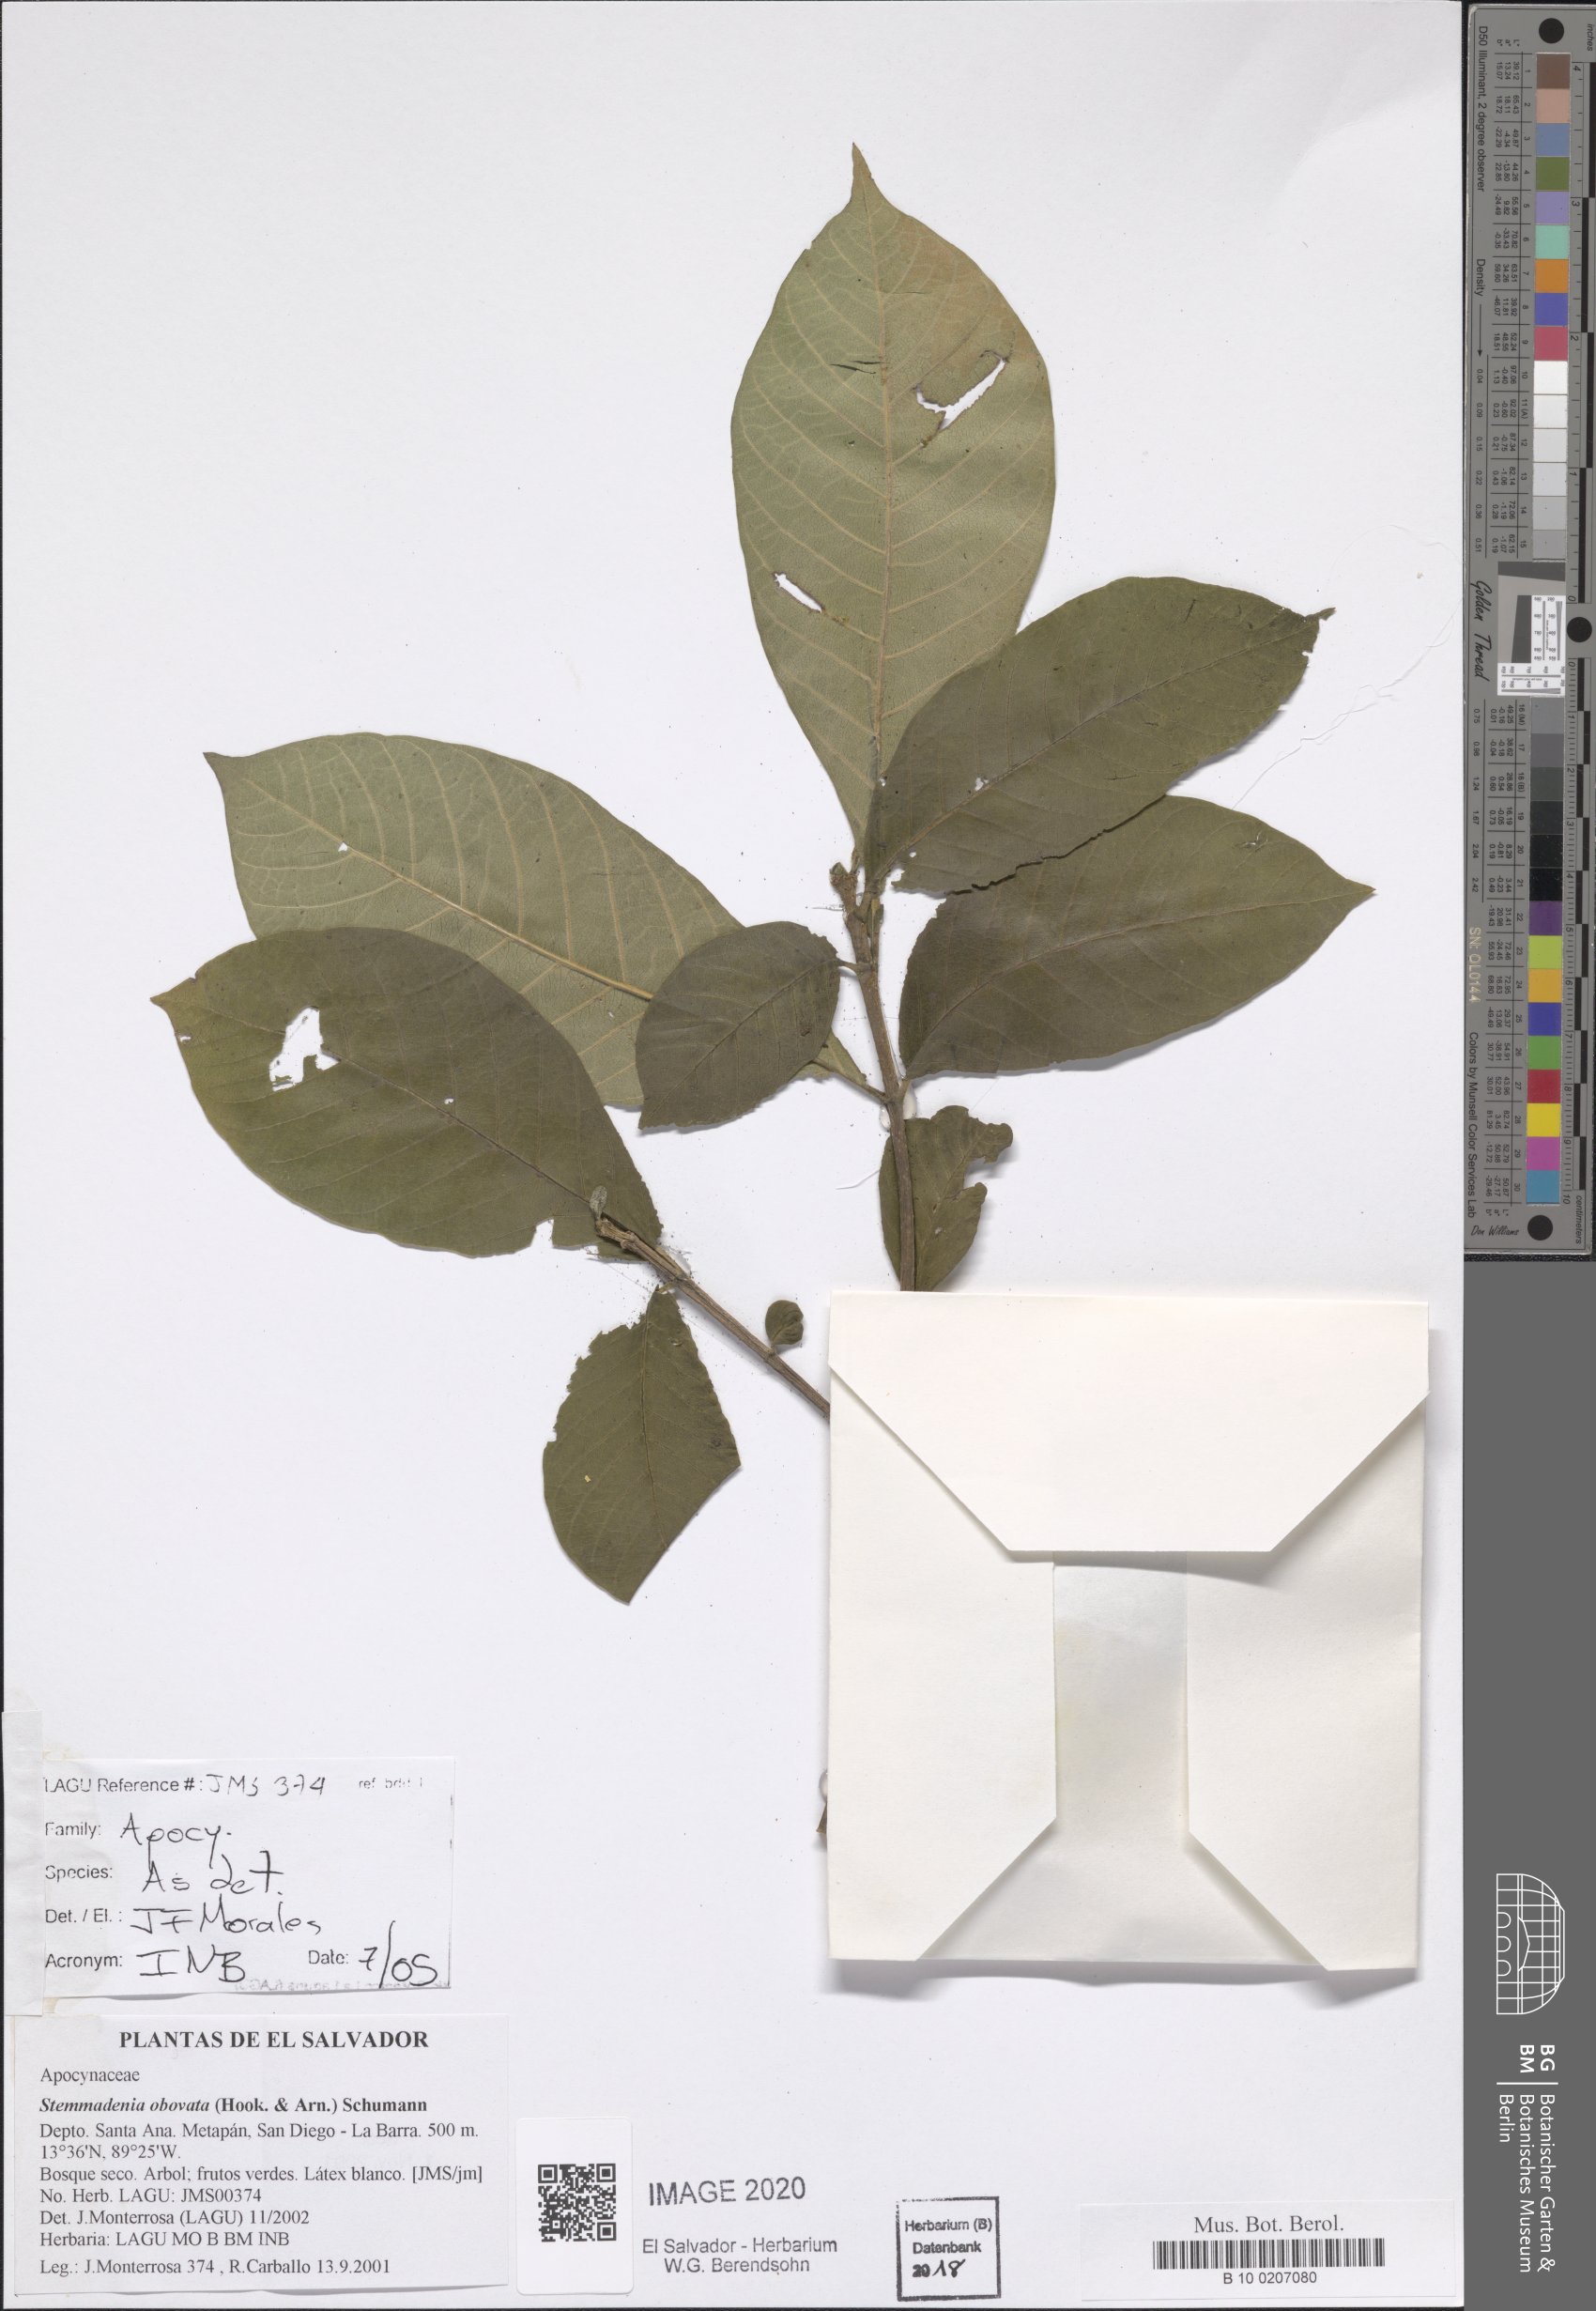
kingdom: Plantae
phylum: Tracheophyta
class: Magnoliopsida
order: Gentianales
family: Apocynaceae
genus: Tabernaemontana
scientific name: Tabernaemontana glabra
